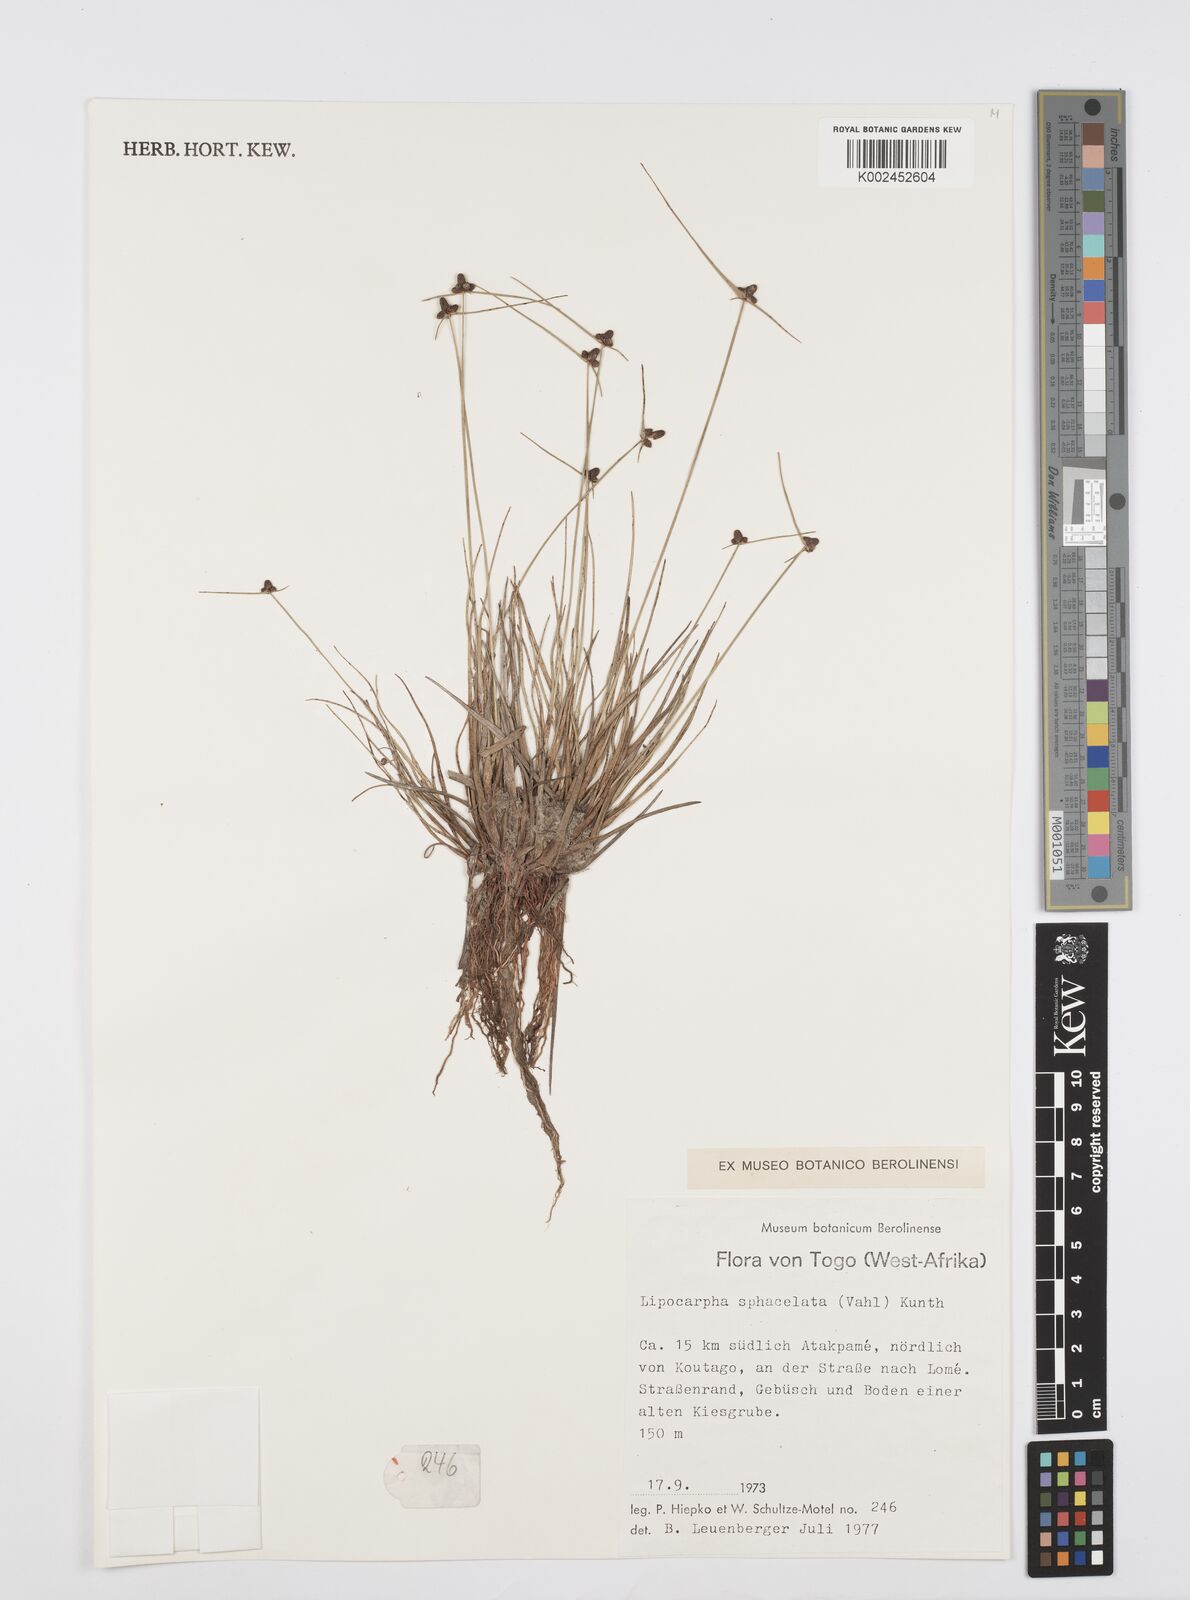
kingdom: Plantae
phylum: Tracheophyta
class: Liliopsida
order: Poales
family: Cyperaceae
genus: Cyperus
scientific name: Cyperus sphacelatus
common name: Roadside flatsedge
